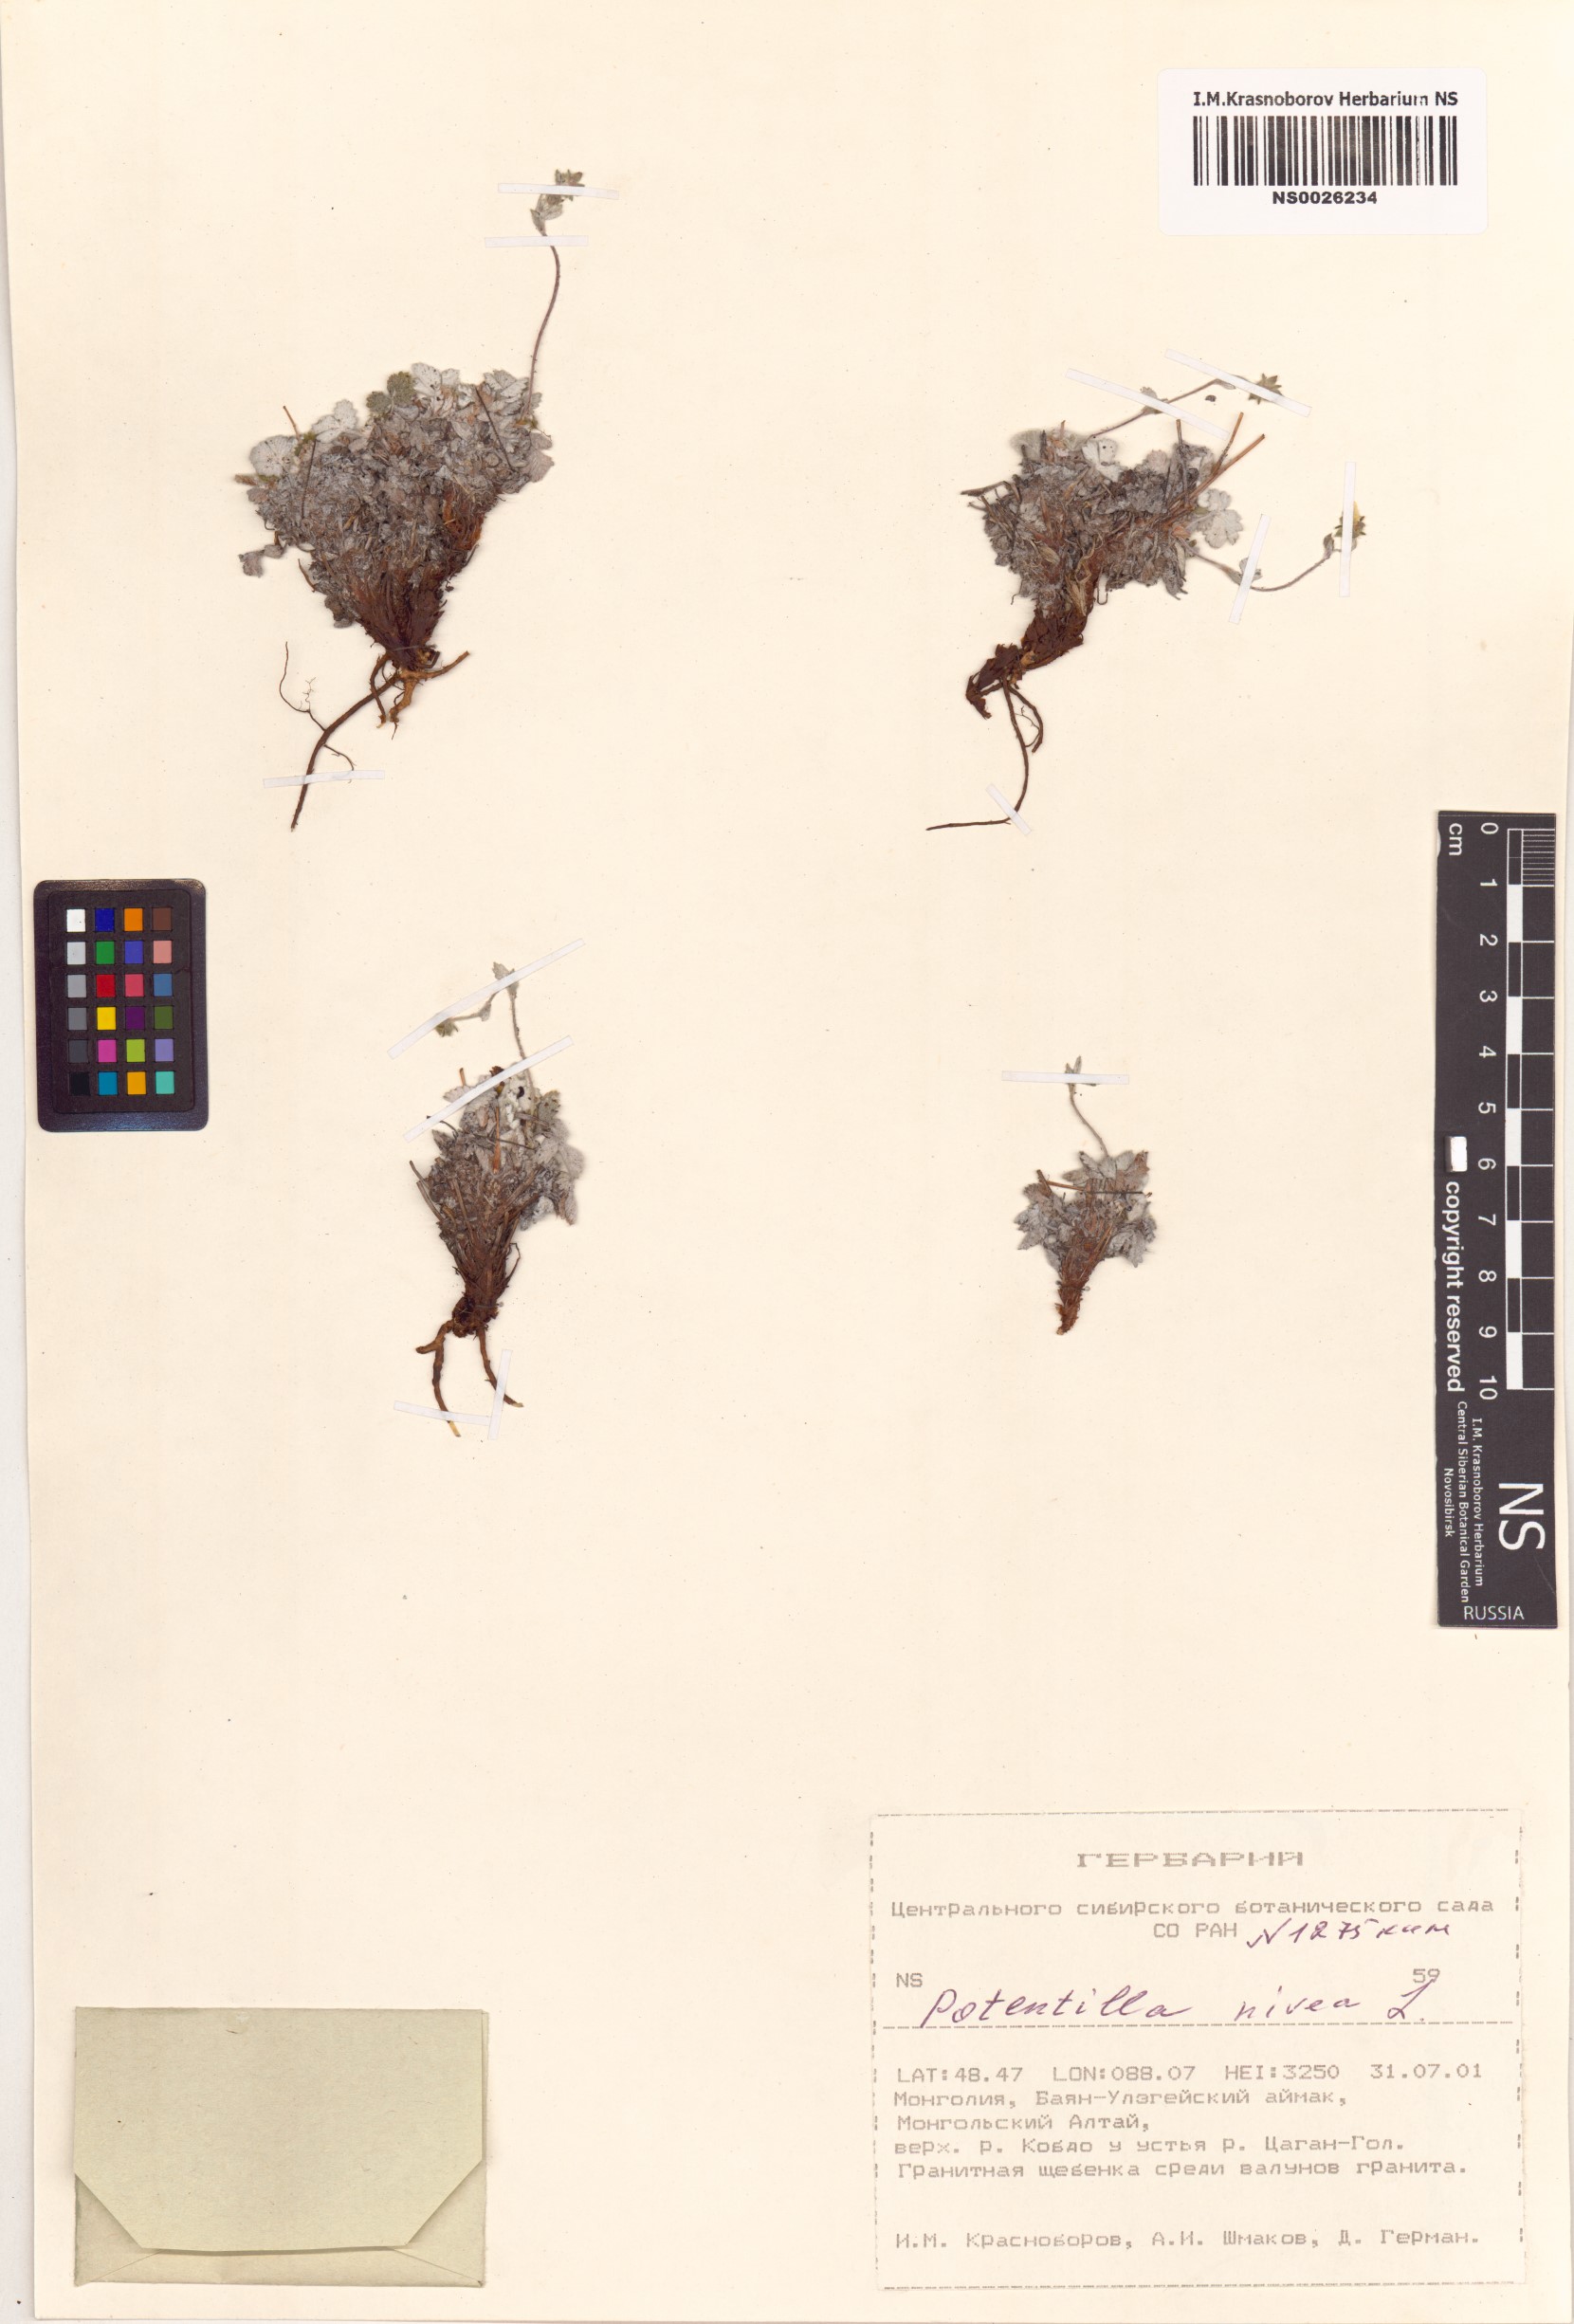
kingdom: Plantae
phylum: Tracheophyta
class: Magnoliopsida
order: Rosales
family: Rosaceae
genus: Potentilla
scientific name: Potentilla nivea
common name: Snow cinquefoil
